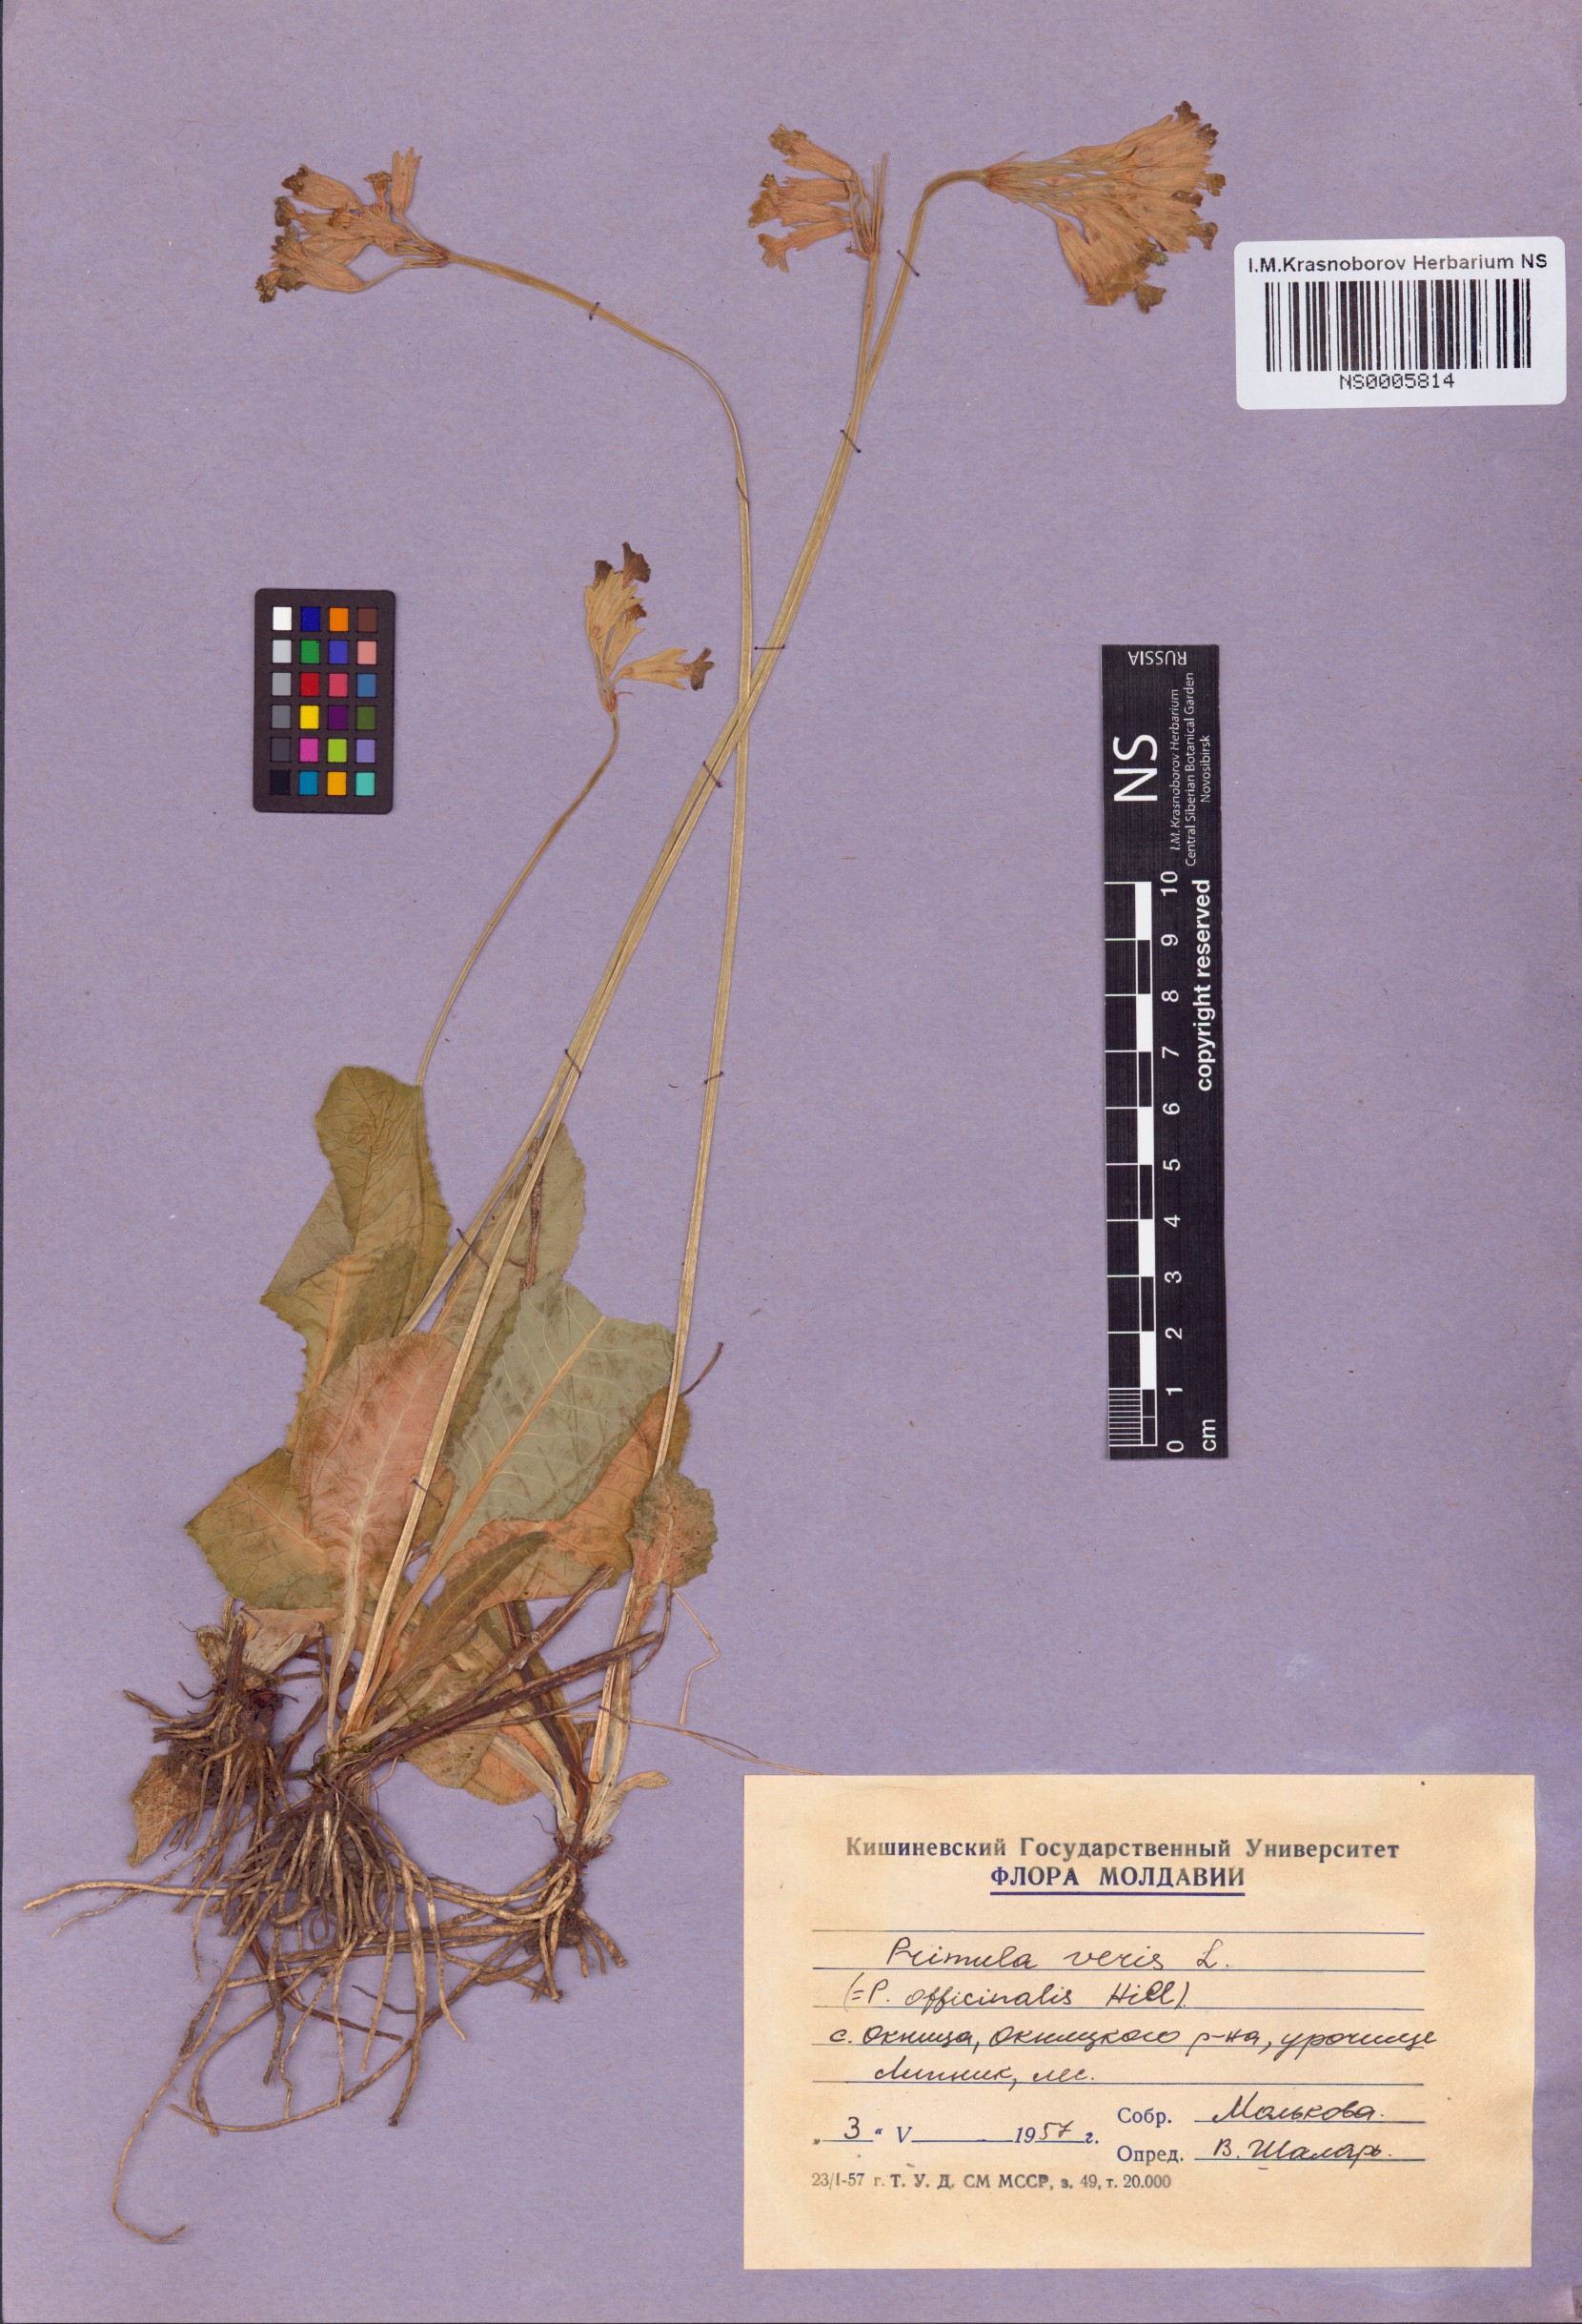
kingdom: Plantae
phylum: Tracheophyta
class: Magnoliopsida
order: Ericales
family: Primulaceae
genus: Primula
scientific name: Primula veris
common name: Cowslip
